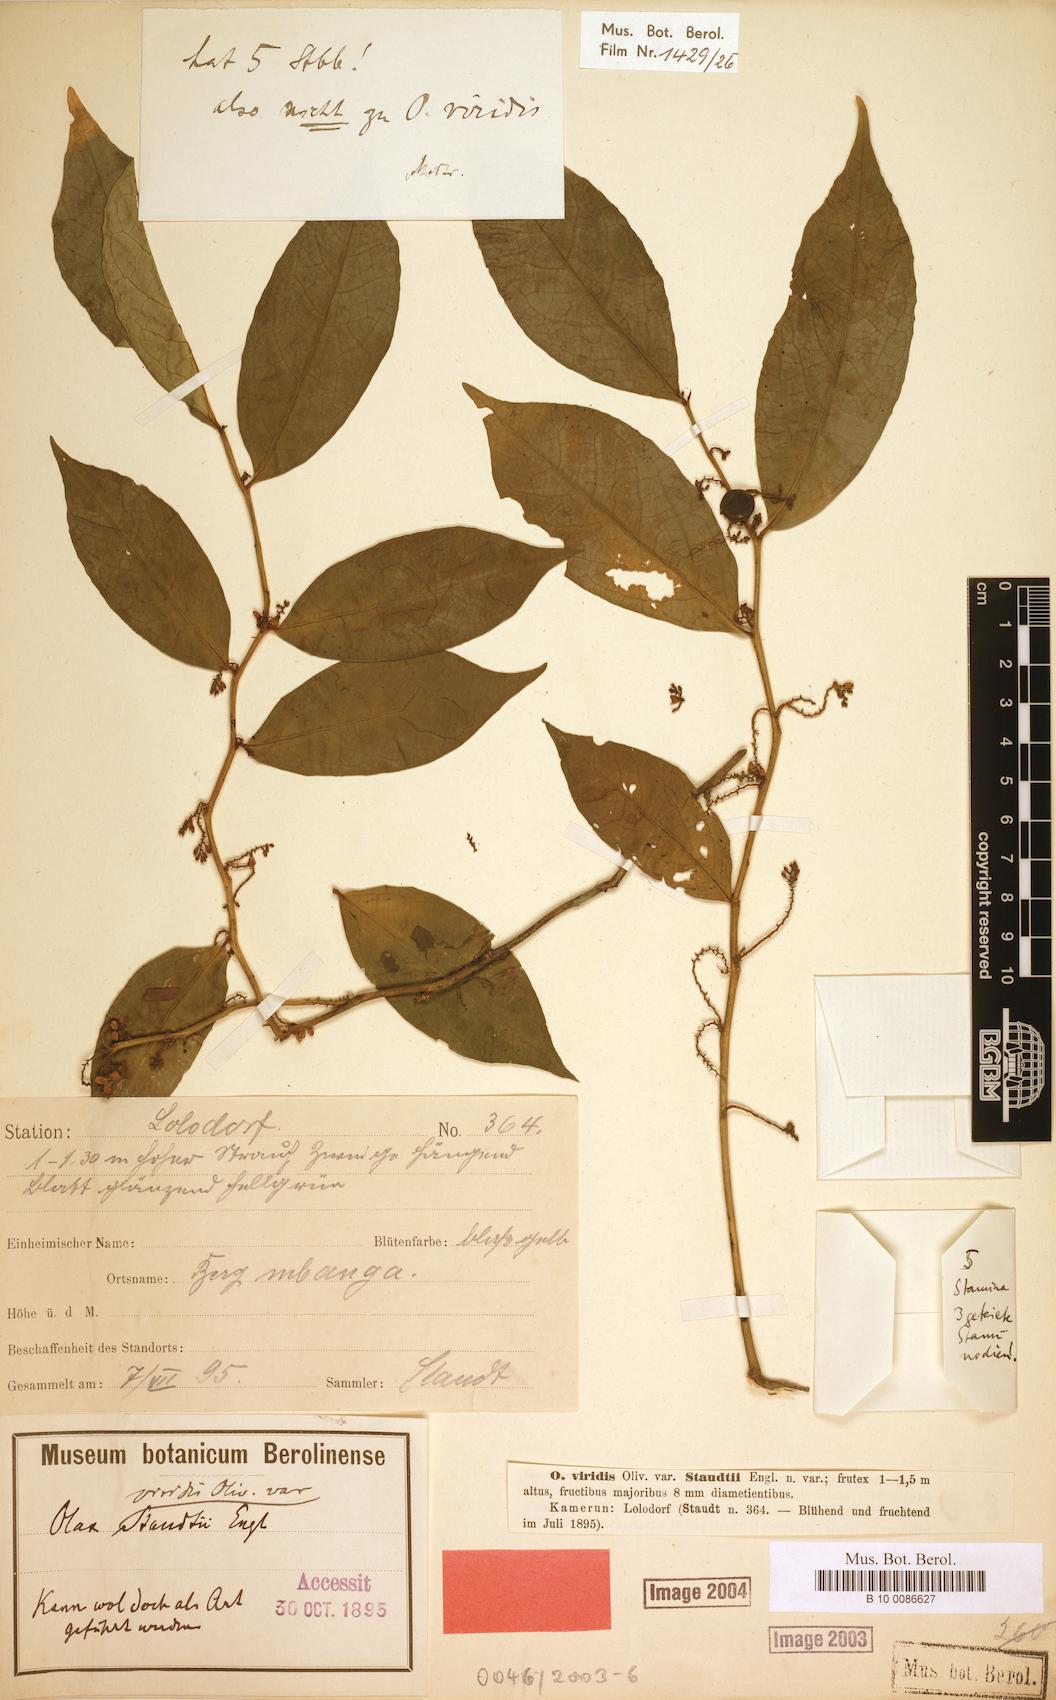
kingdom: Plantae
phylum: Tracheophyta
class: Magnoliopsida
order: Santalales
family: Olacaceae
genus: Olax
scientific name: Olax staudtii
